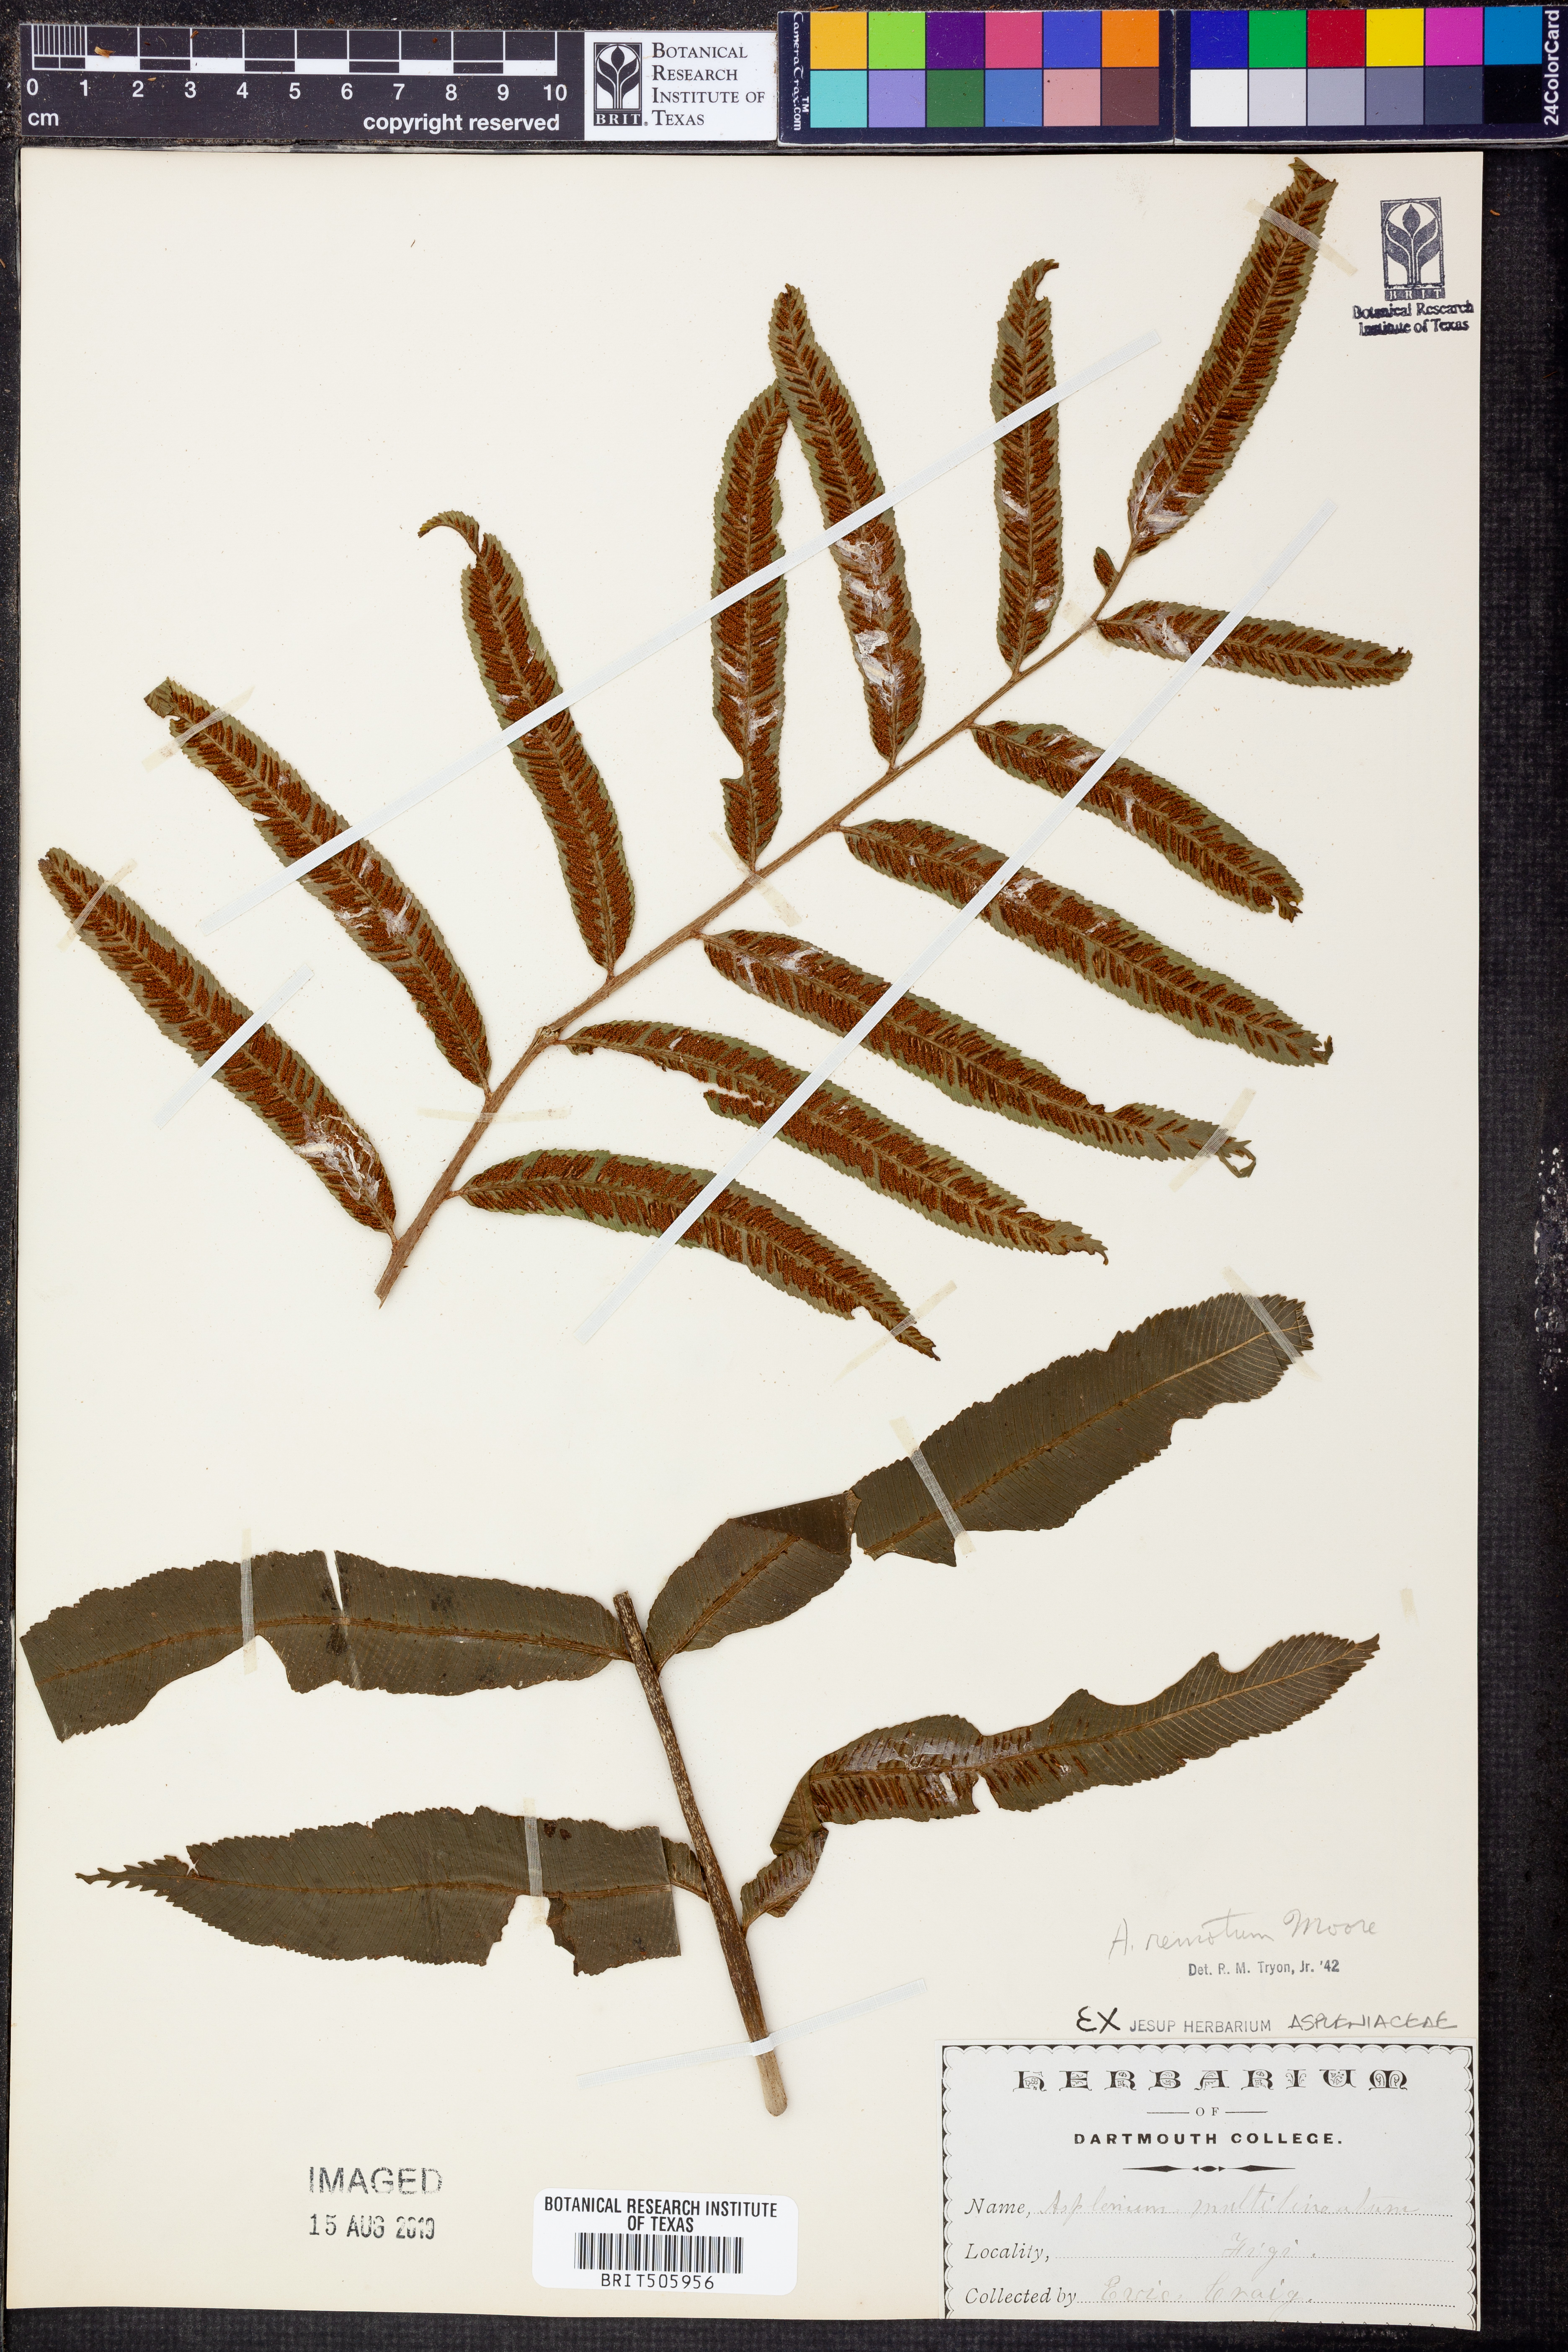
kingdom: Plantae
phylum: Tracheophyta
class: Polypodiopsida
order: Polypodiales
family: Aspleniaceae
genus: Asplenium
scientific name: Asplenium marattioides
